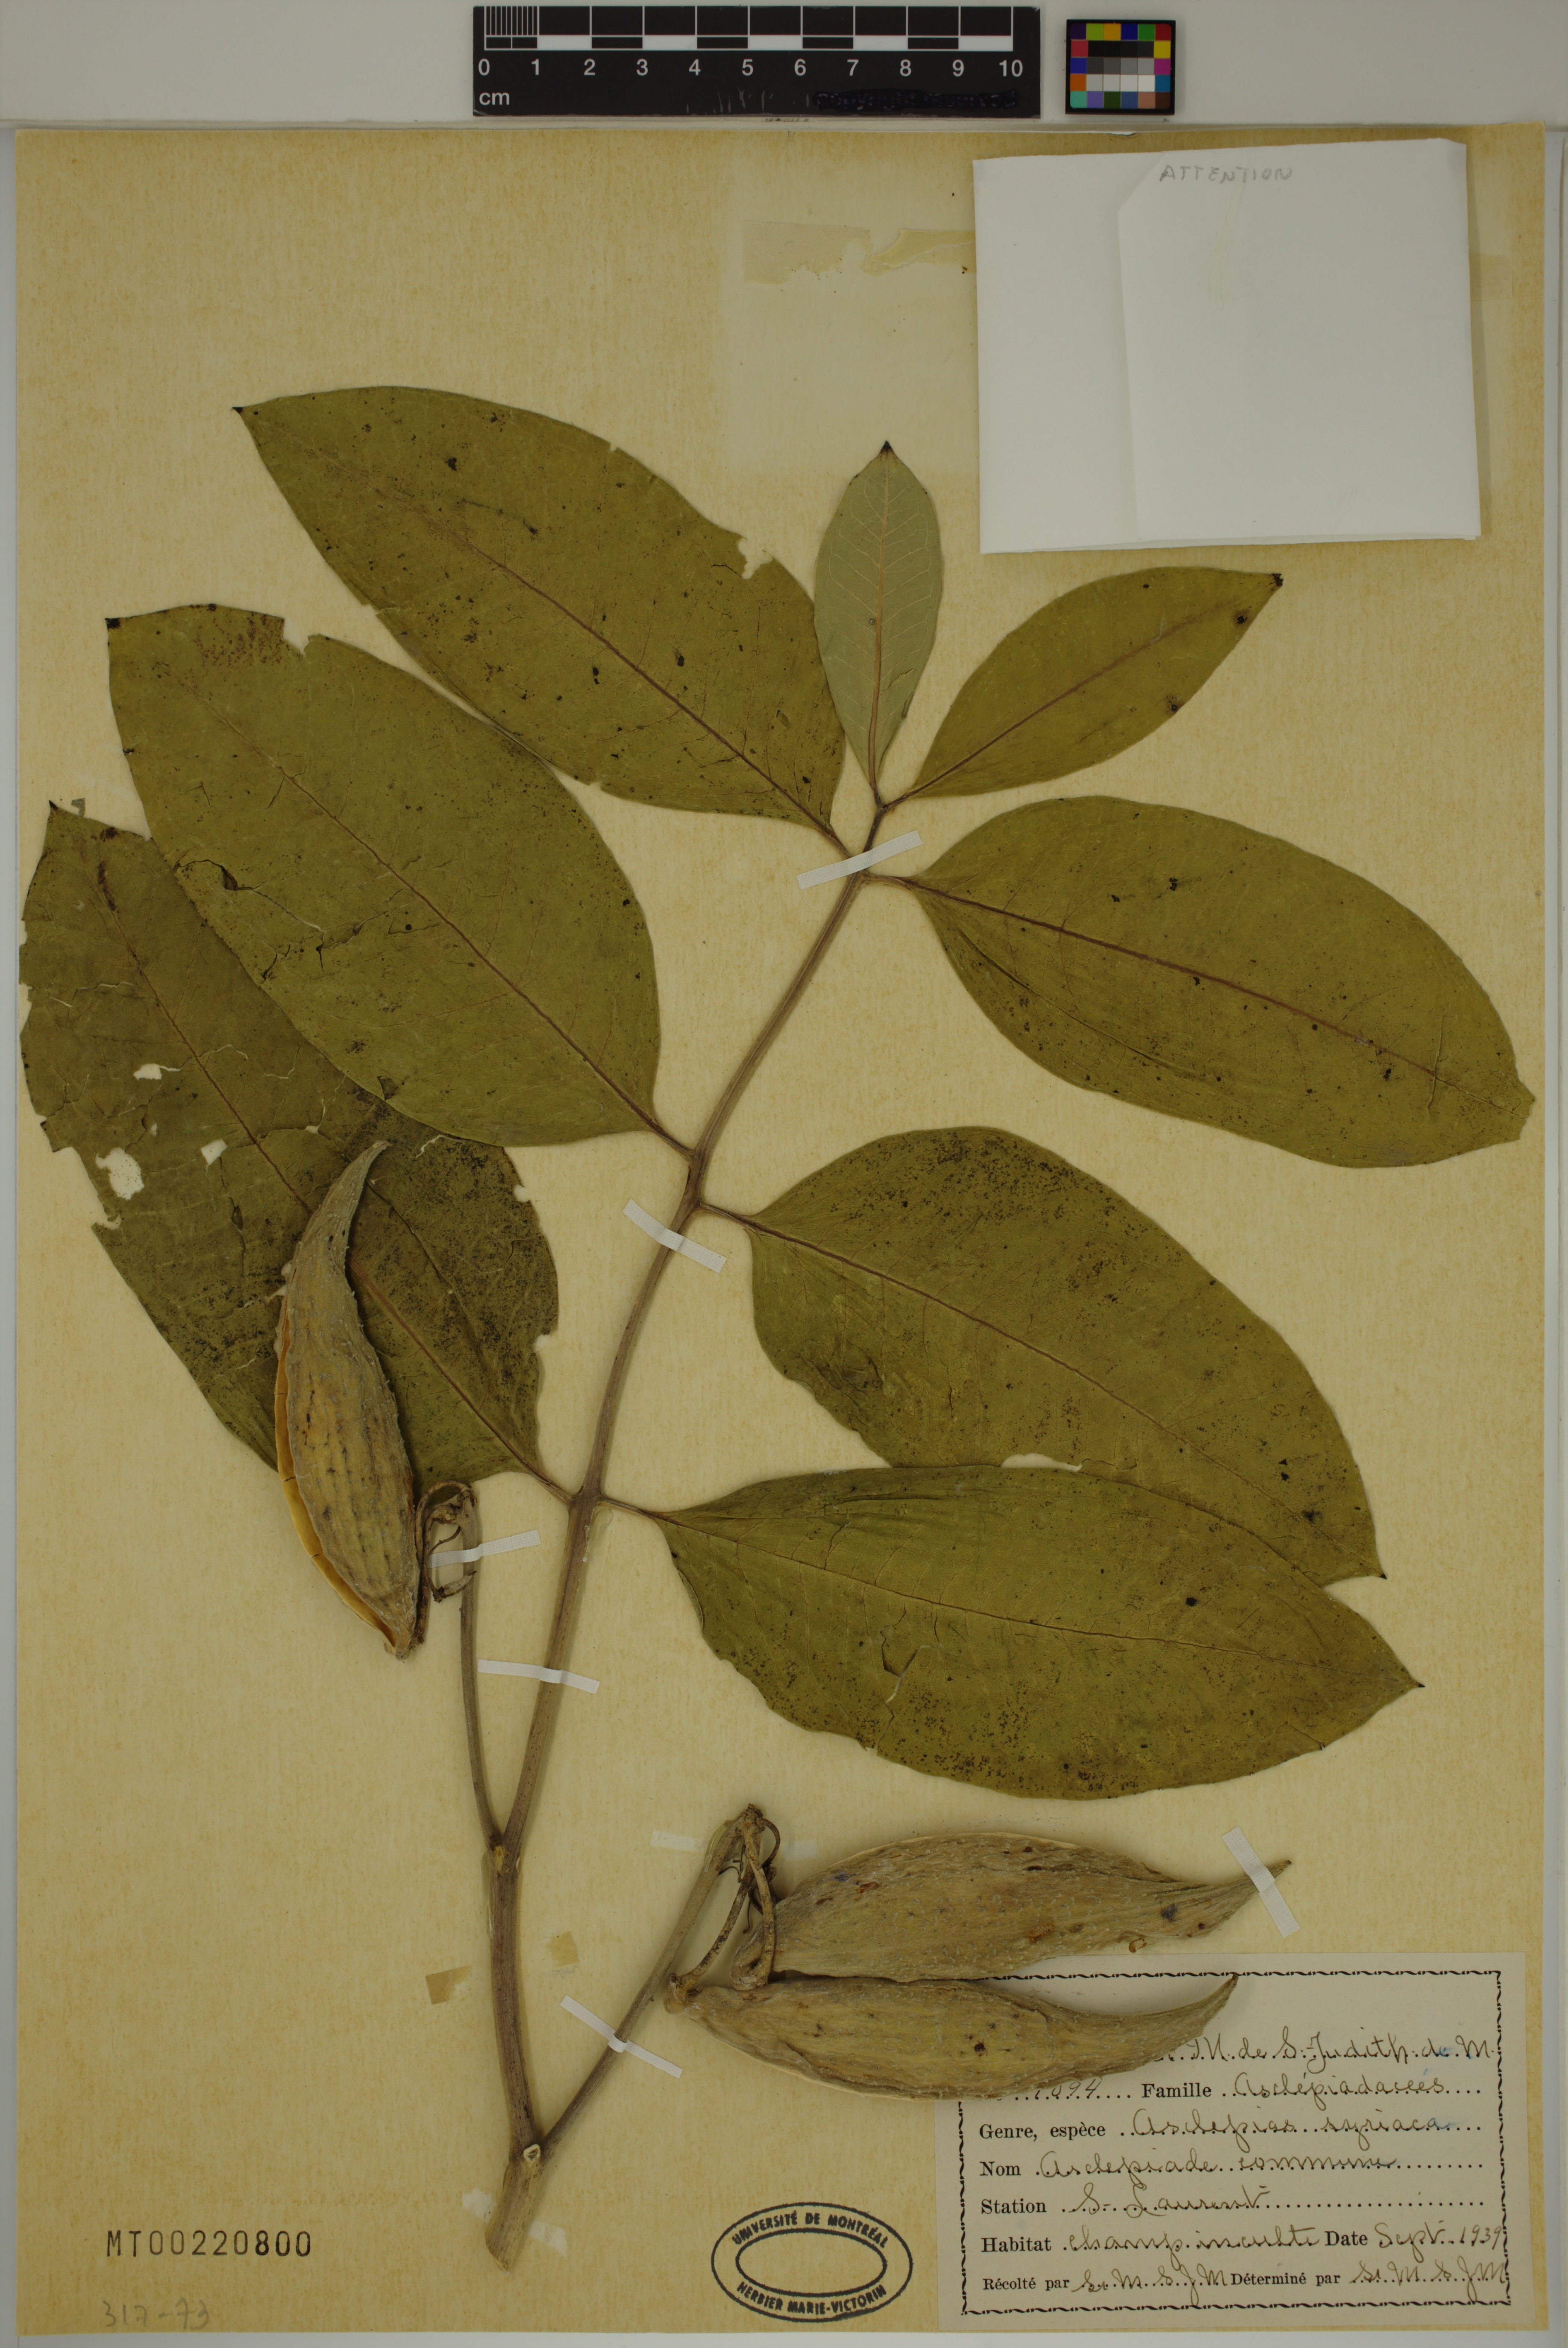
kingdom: Plantae
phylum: Tracheophyta
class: Magnoliopsida
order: Gentianales
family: Apocynaceae
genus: Asclepias
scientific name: Asclepias syriaca
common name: Common milkweed
